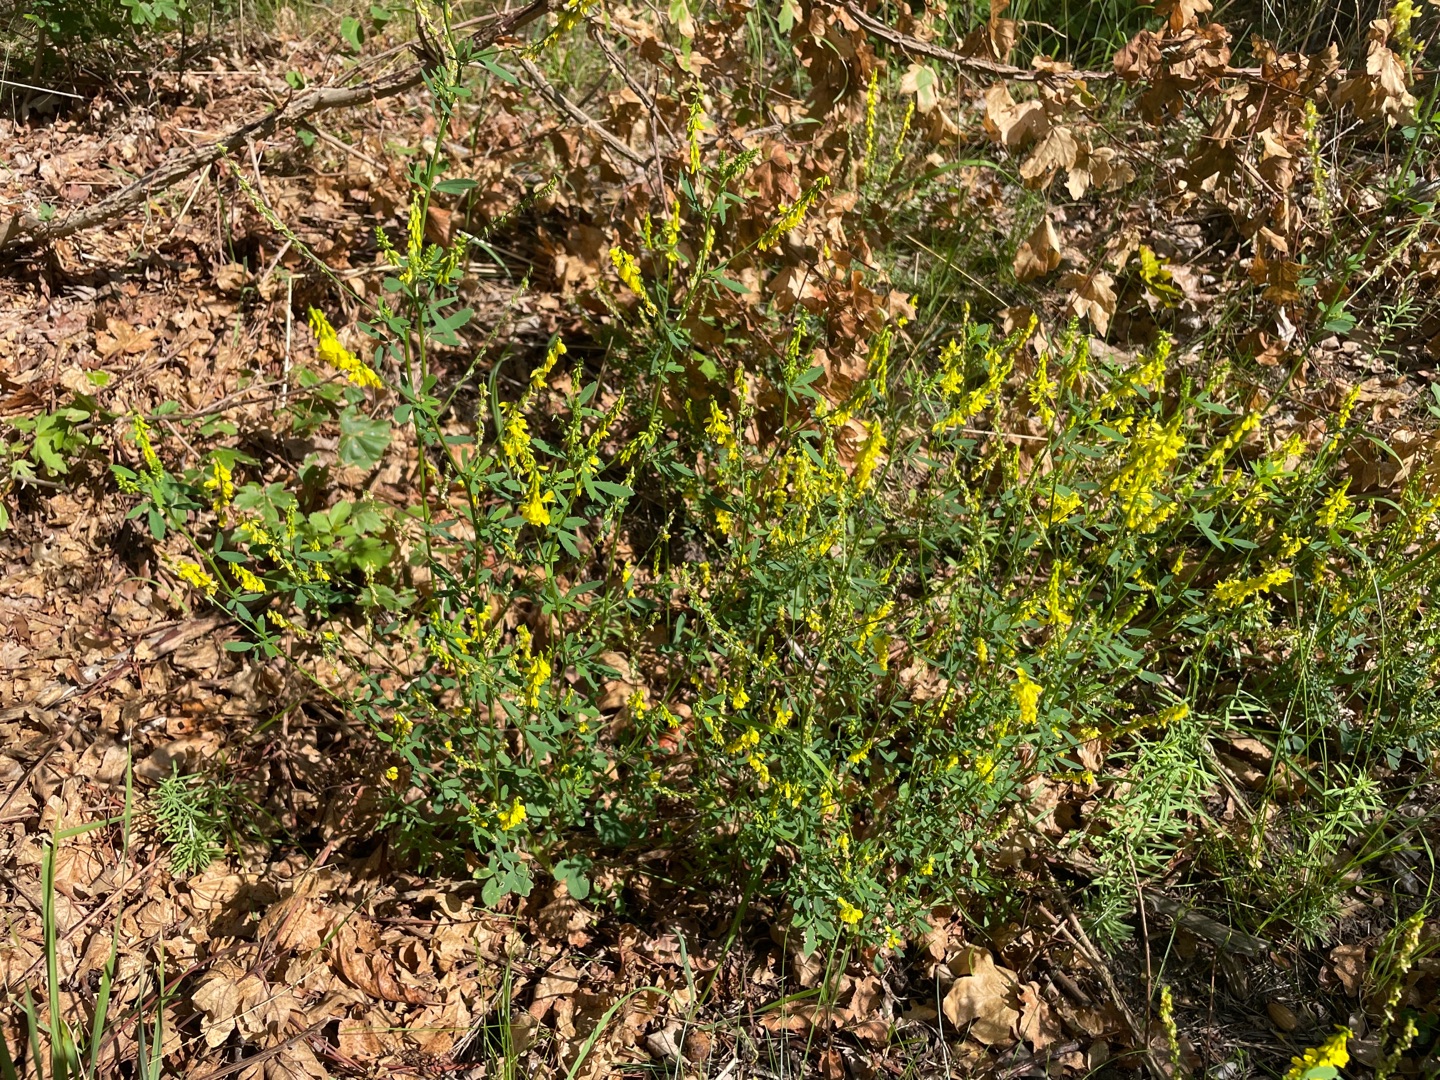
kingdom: Plantae
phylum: Tracheophyta
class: Magnoliopsida
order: Fabales
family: Fabaceae
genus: Melilotus
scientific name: Melilotus
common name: Stenkløverslægten
